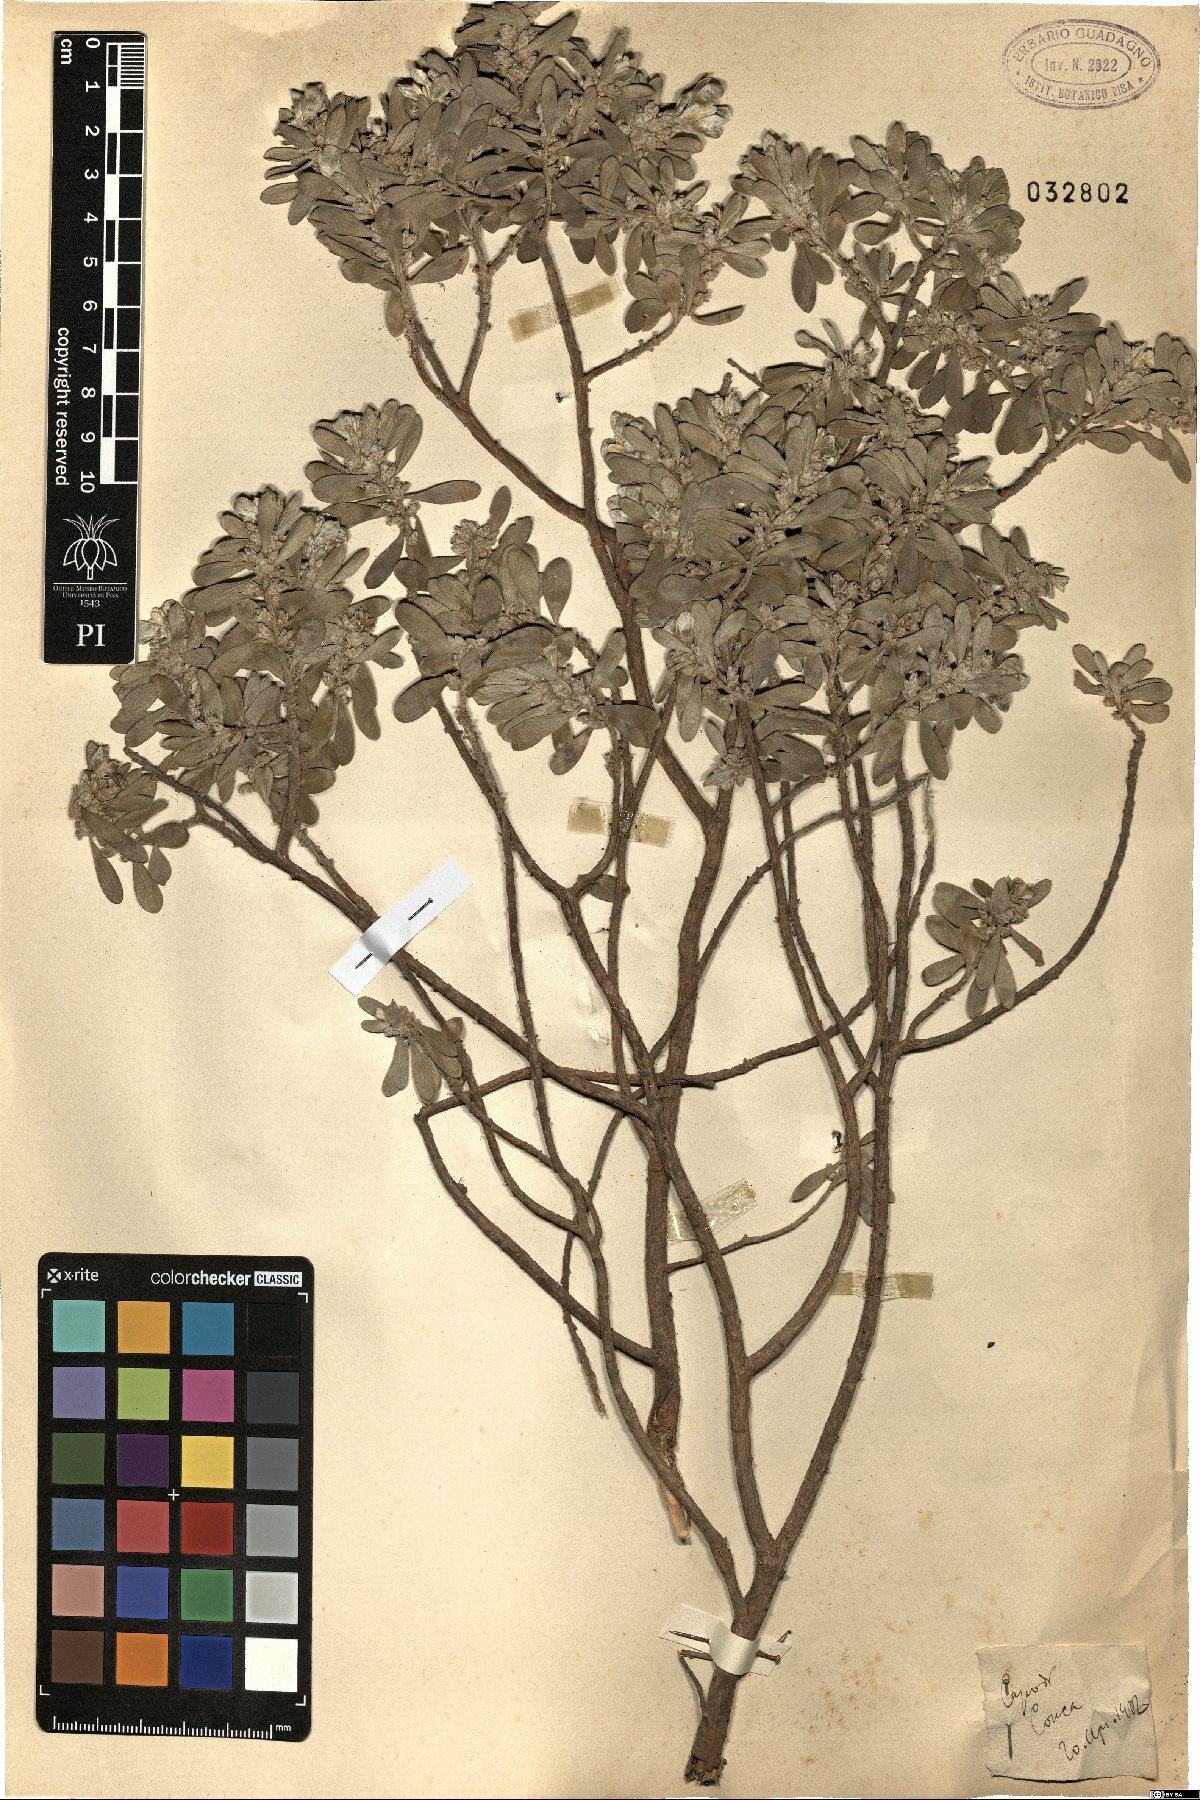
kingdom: Plantae
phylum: Tracheophyta
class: Magnoliopsida
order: Malvales
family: Thymelaeaceae
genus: Thymelaea
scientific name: Thymelaea
